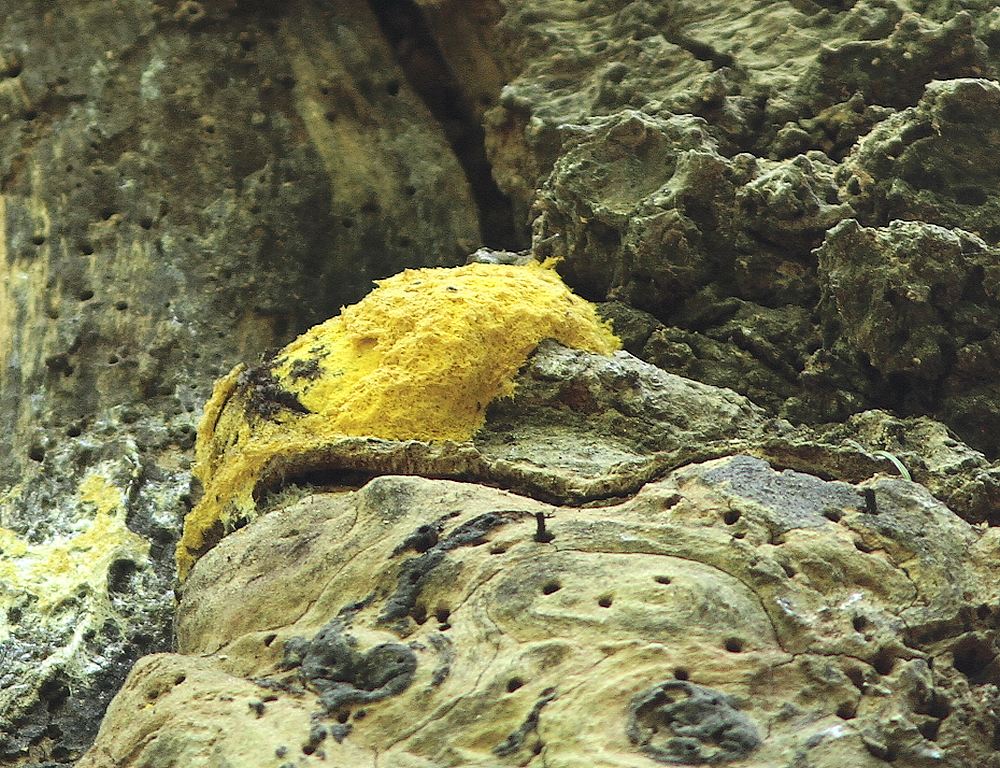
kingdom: Protozoa
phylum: Mycetozoa
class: Myxomycetes
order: Physarales
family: Physaraceae
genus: Fuligo
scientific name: Fuligo septica
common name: gul troldsmør
